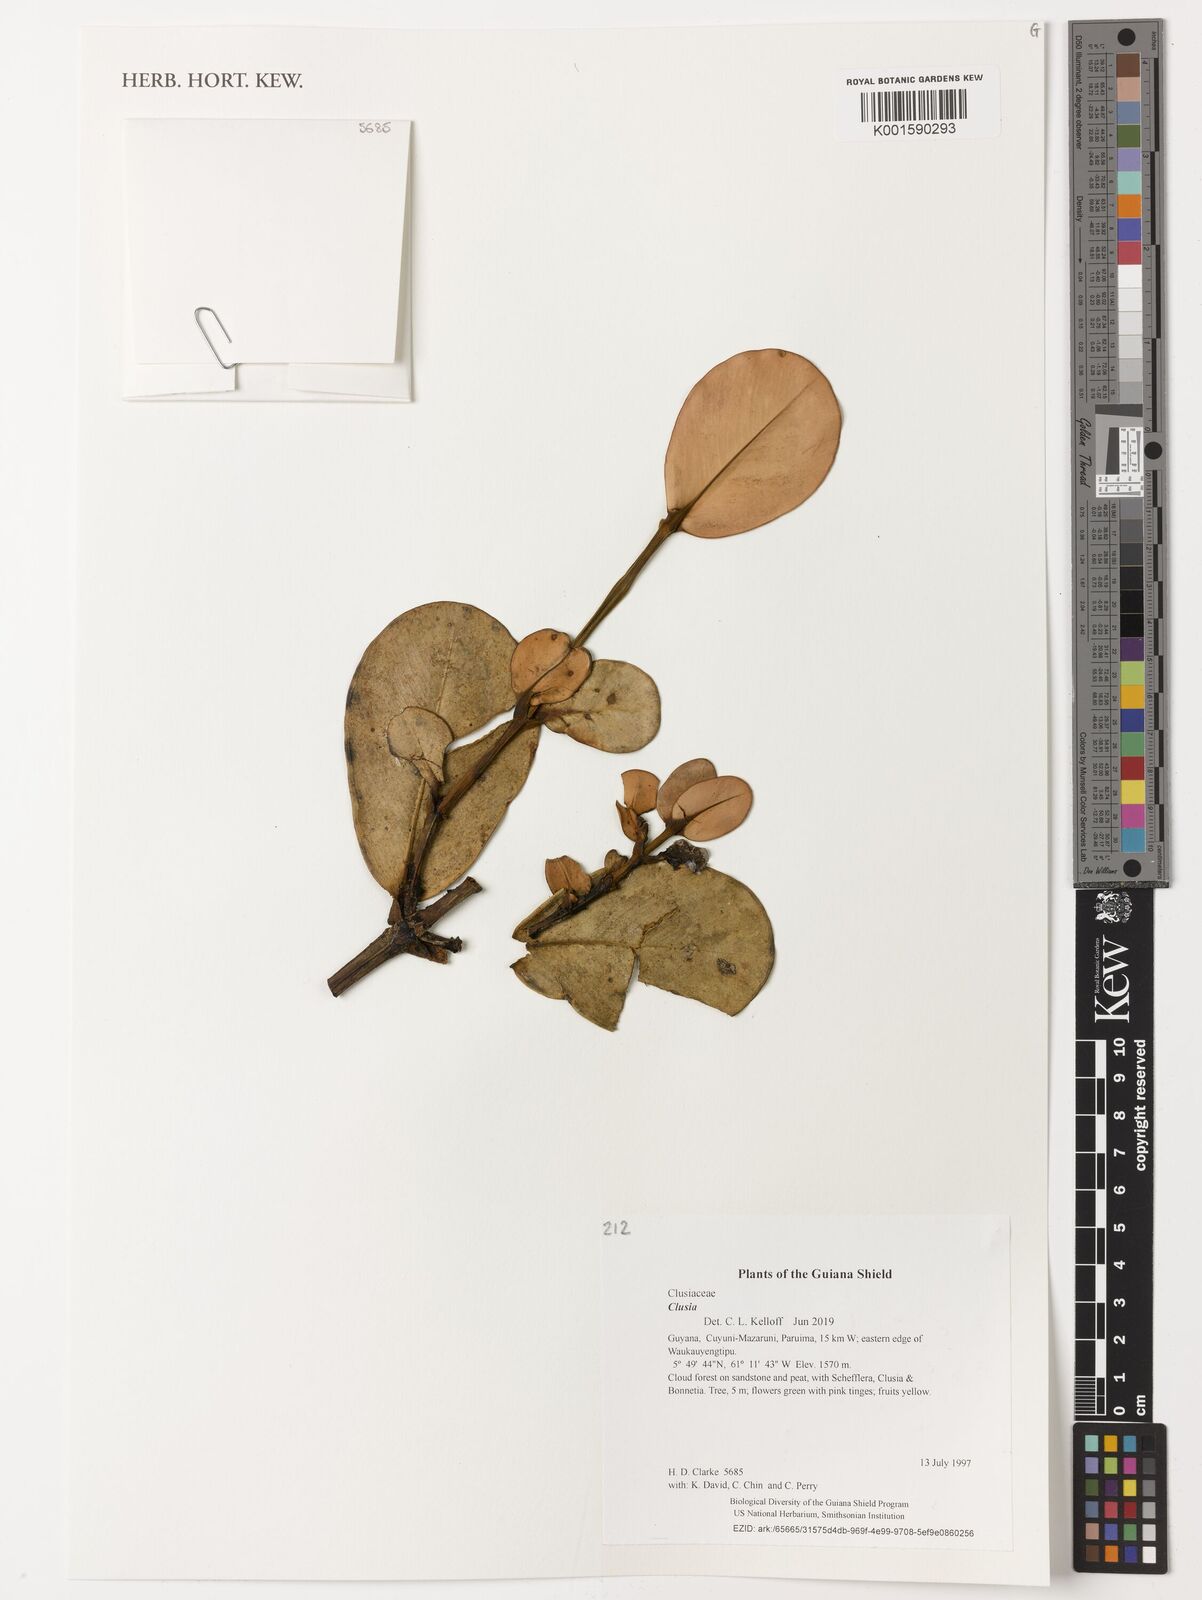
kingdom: Plantae
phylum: Tracheophyta
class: Magnoliopsida
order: Malpighiales
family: Clusiaceae
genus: Clusia
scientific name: Clusia
